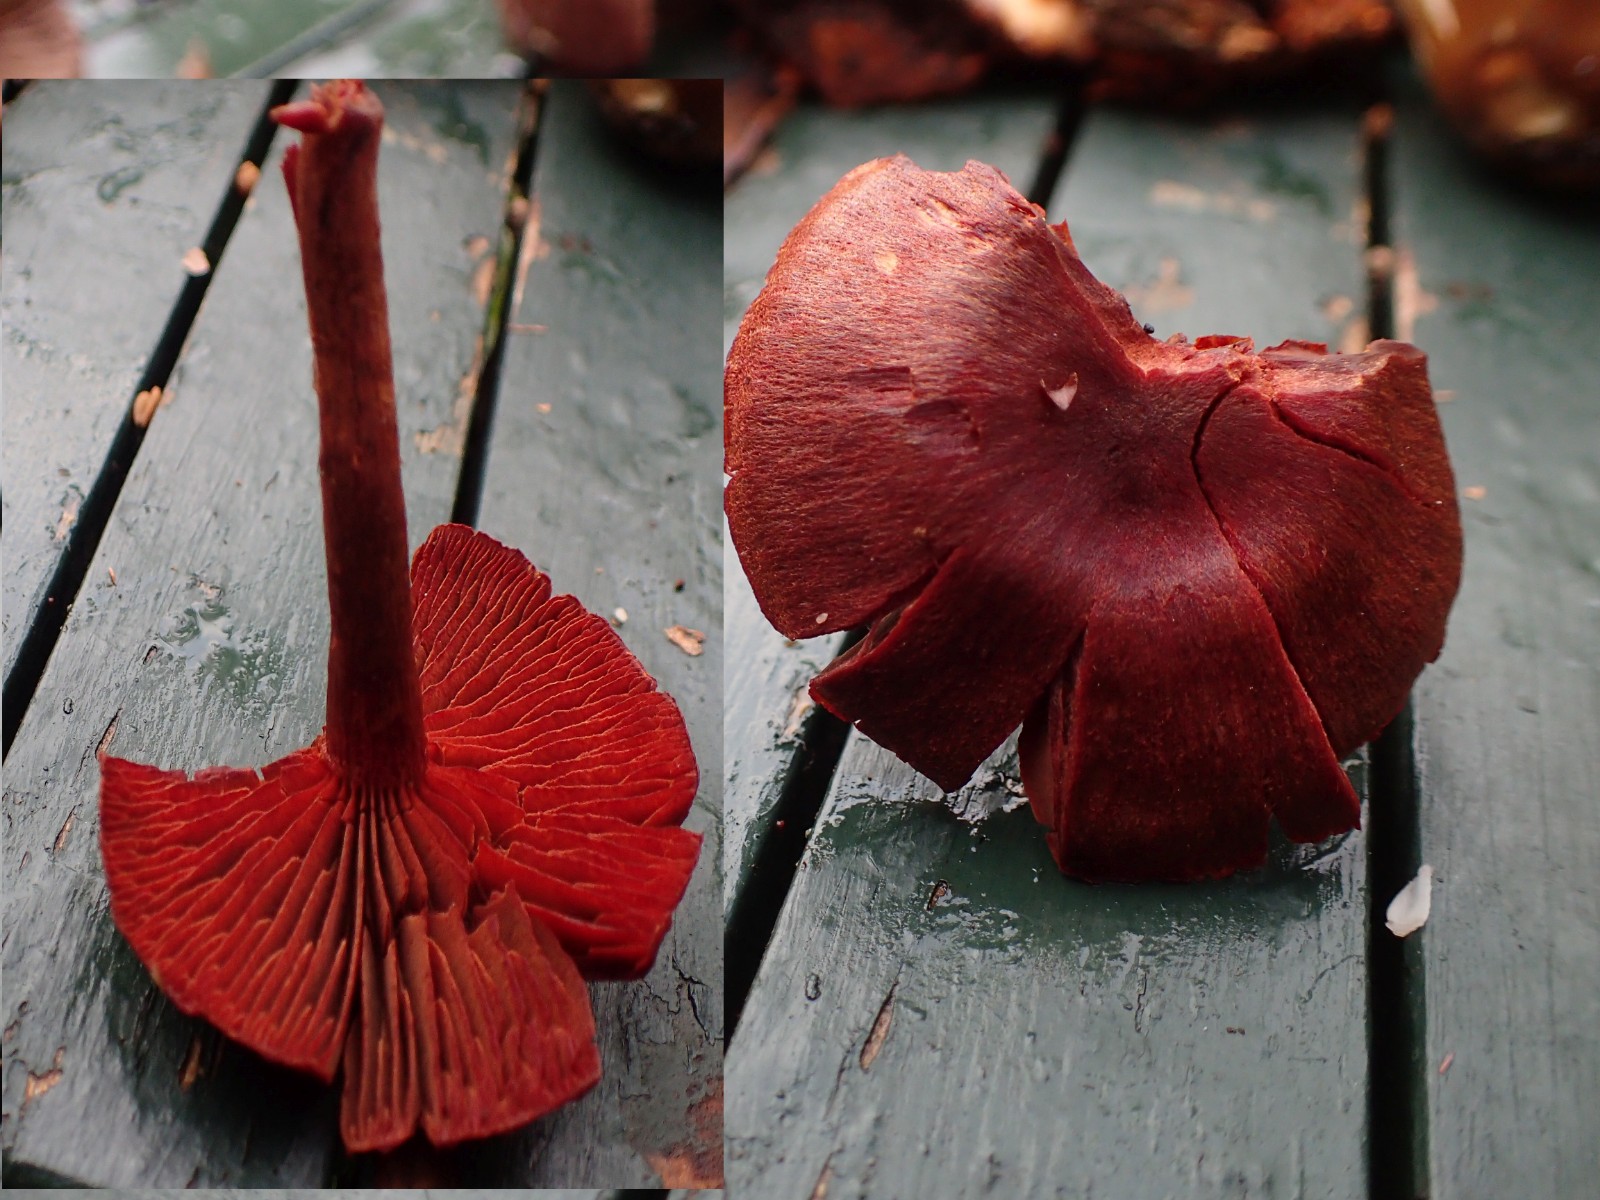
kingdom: Fungi
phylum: Basidiomycota
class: Agaricomycetes
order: Agaricales
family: Cortinariaceae
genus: Cortinarius
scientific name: Cortinarius sanguineus
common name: blodrød slørhat
